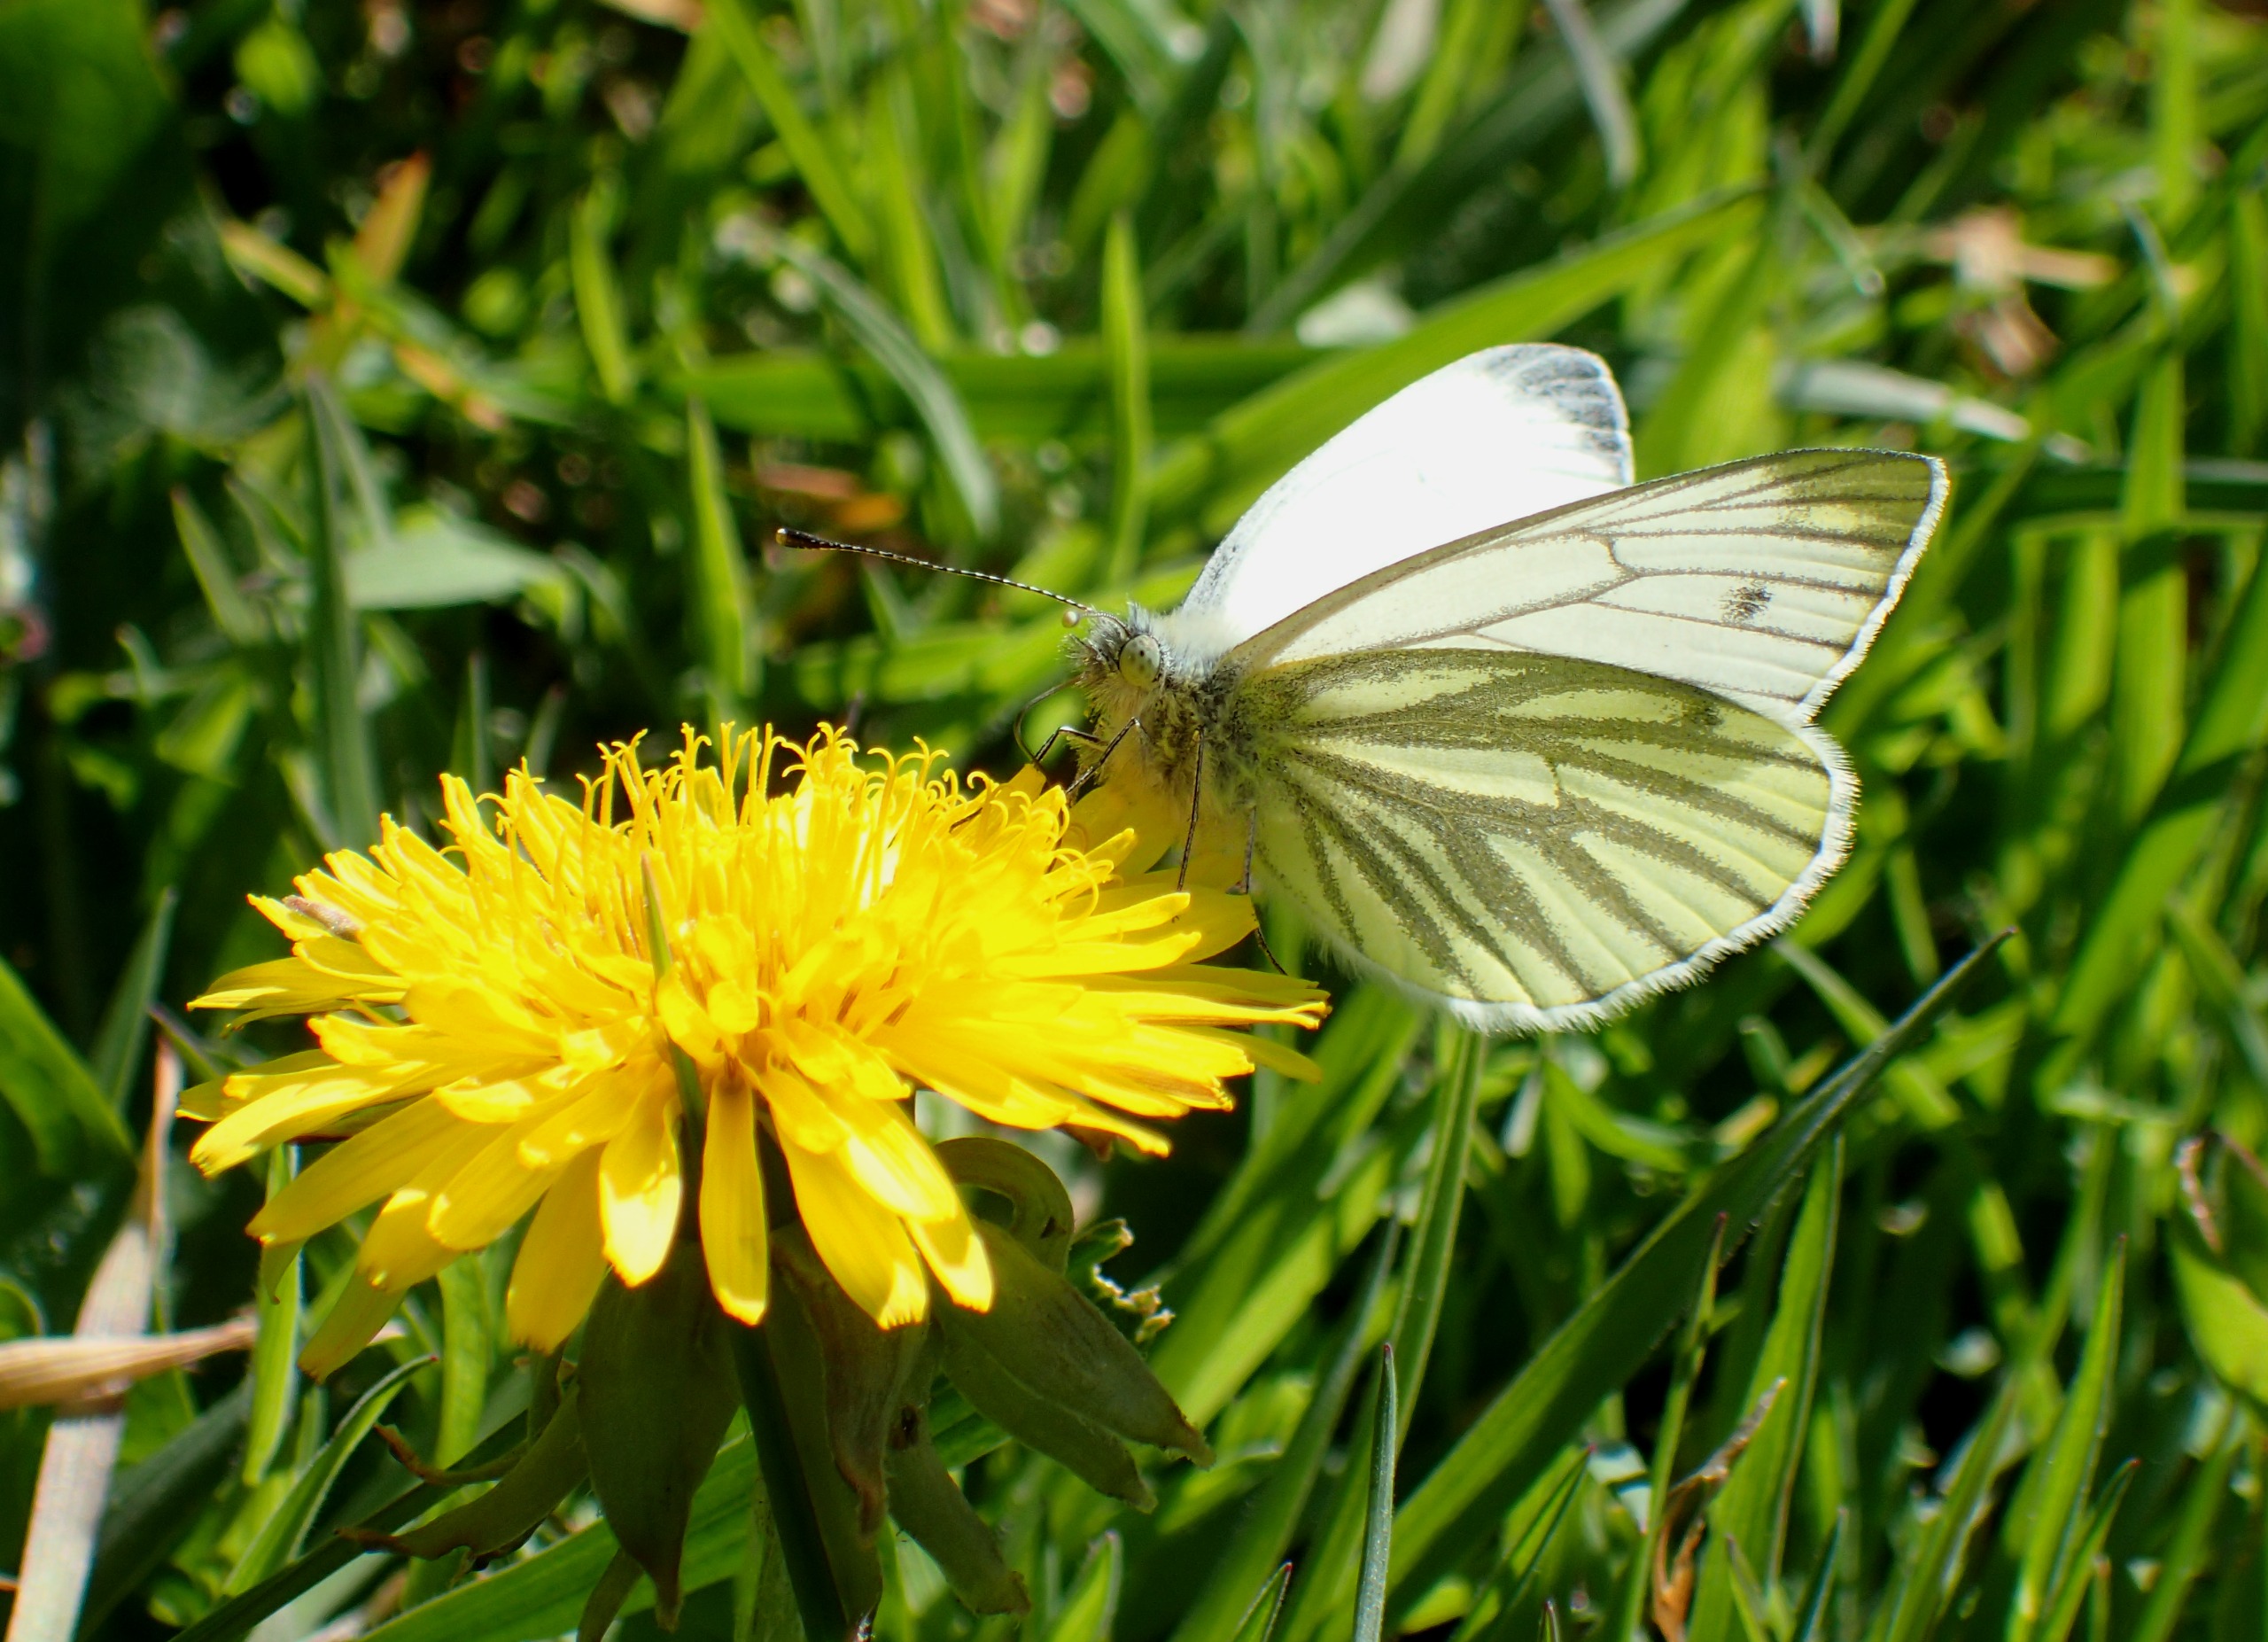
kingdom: Animalia
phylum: Arthropoda
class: Insecta
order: Lepidoptera
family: Pieridae
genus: Pieris
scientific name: Pieris napi
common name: Grønåret kålsommerfugl
